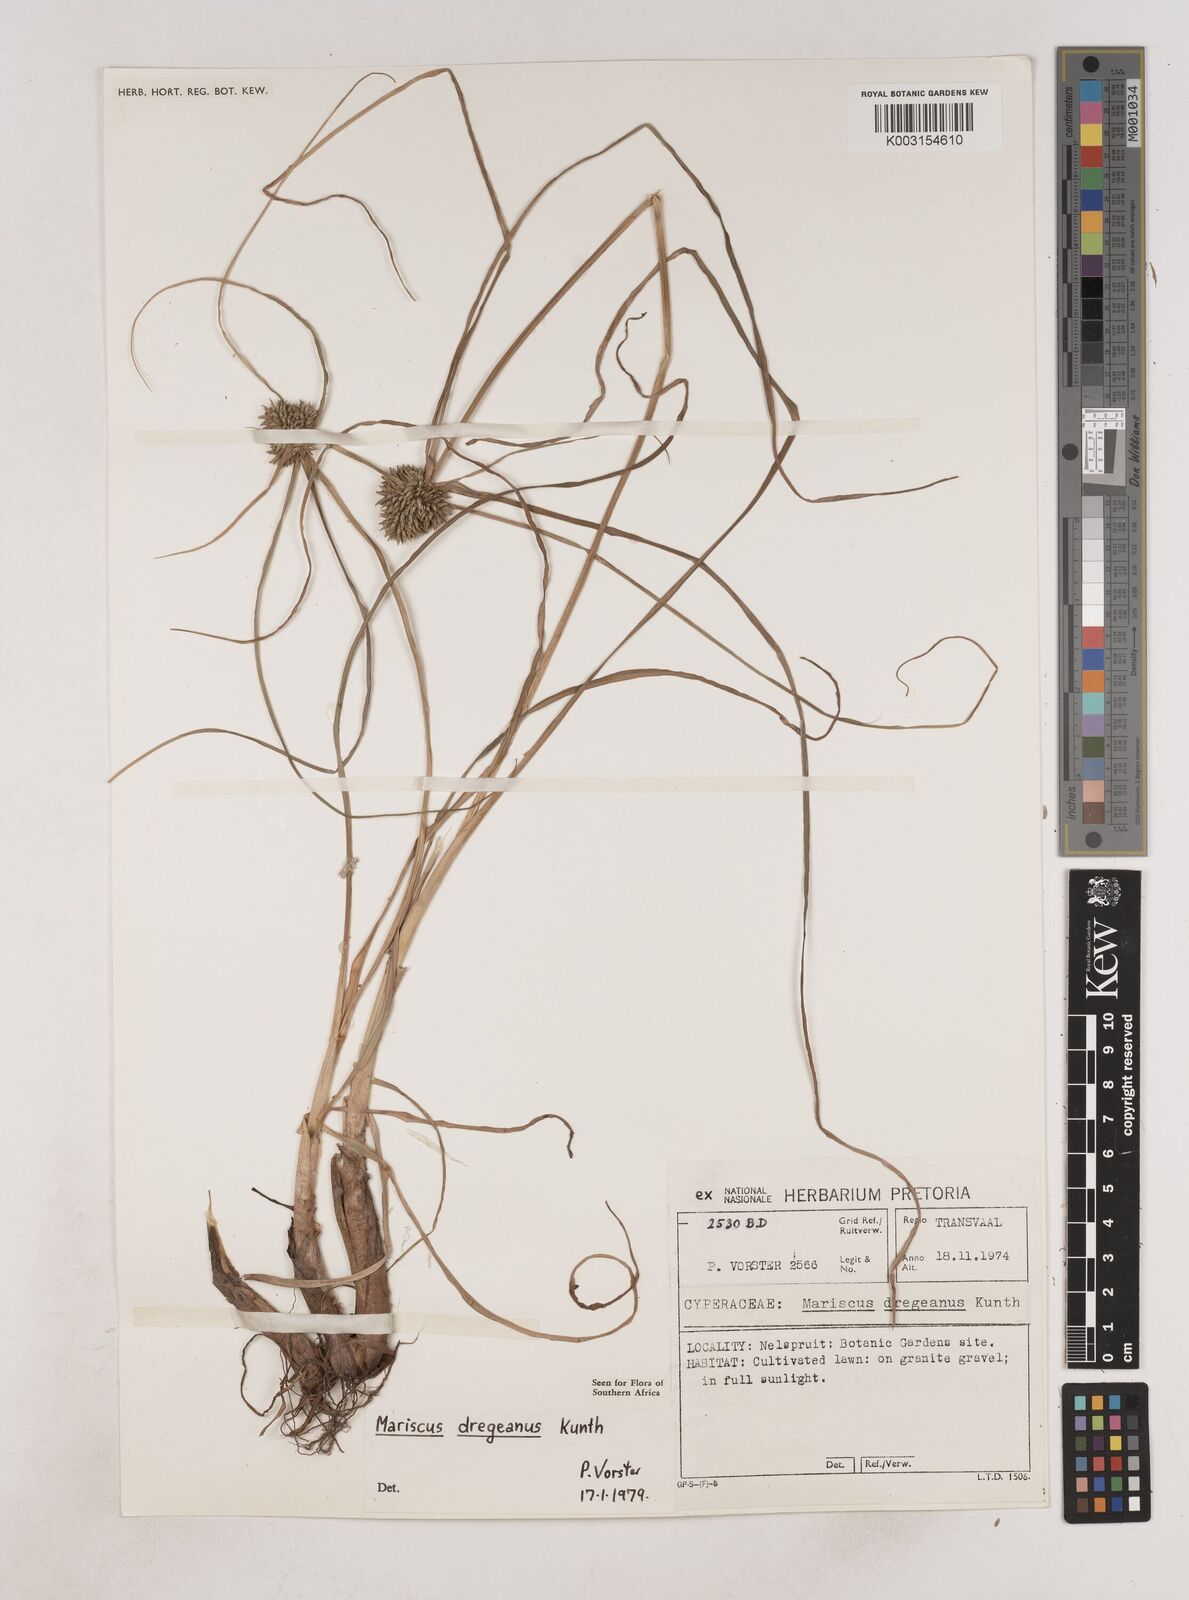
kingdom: Plantae
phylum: Tracheophyta
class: Liliopsida
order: Poales
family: Cyperaceae
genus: Cyperus
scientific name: Cyperus dubius
